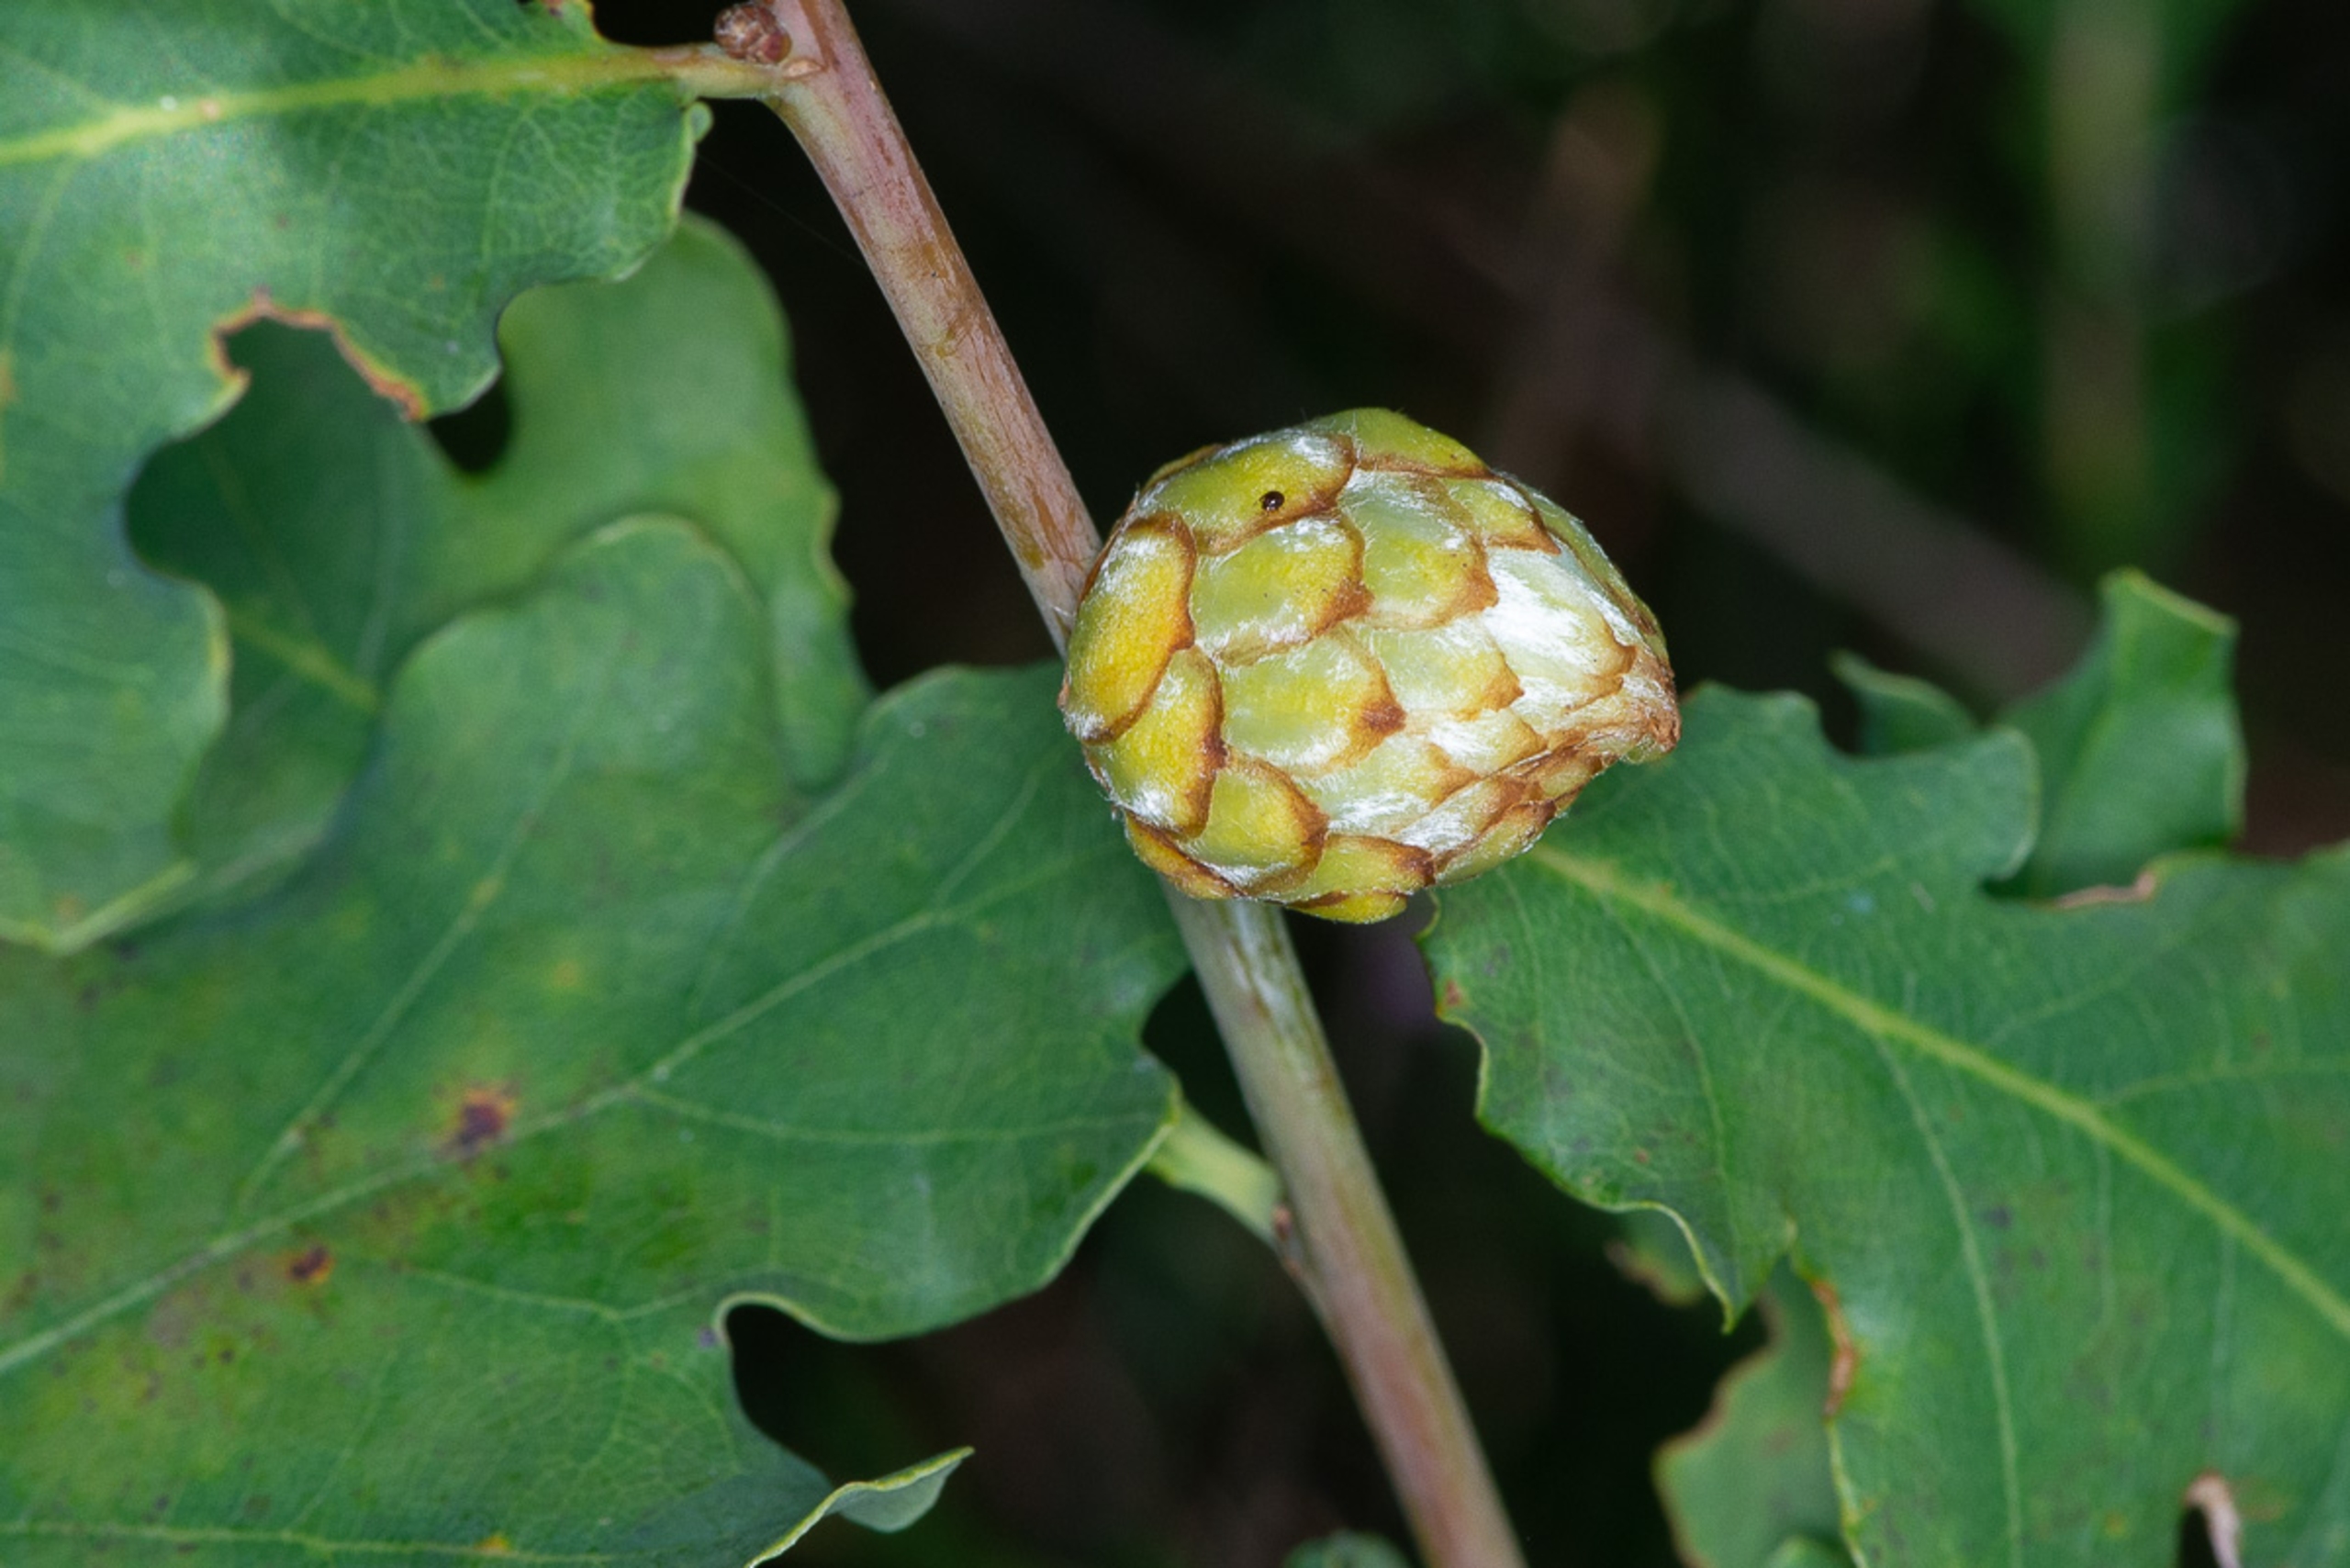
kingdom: Animalia
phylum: Arthropoda
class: Insecta
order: Hymenoptera
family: Cynipidae
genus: Andricus
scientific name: Andricus foecundatrix
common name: Artiskokgalhveps
